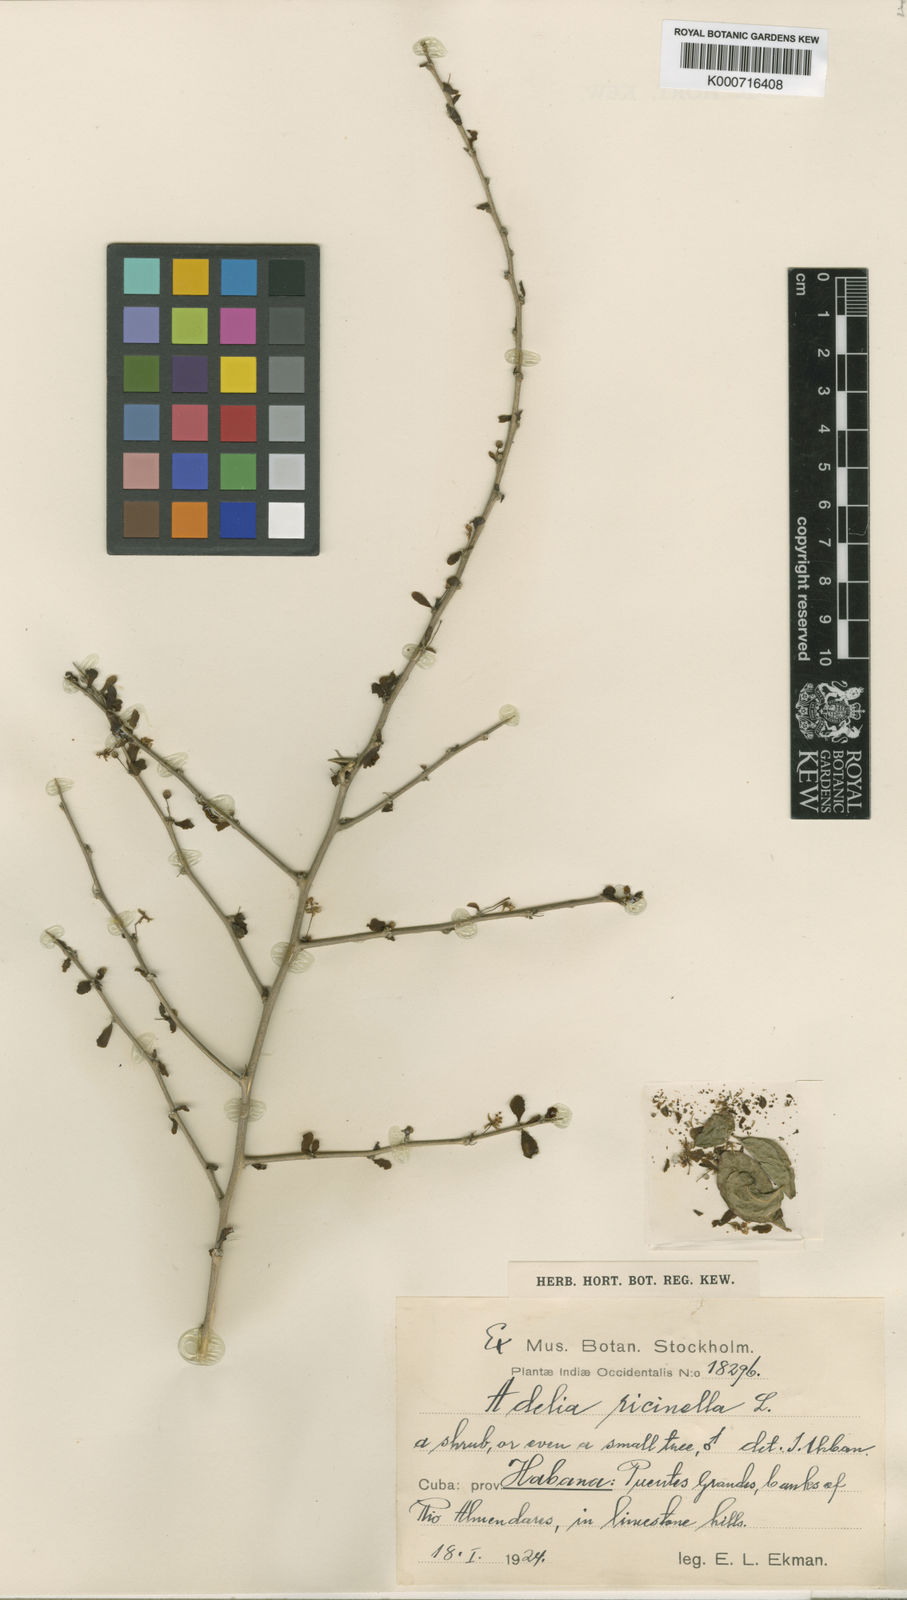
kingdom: Plantae
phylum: Tracheophyta
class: Magnoliopsida
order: Malpighiales
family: Euphorbiaceae
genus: Adelia
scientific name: Adelia ricinella
